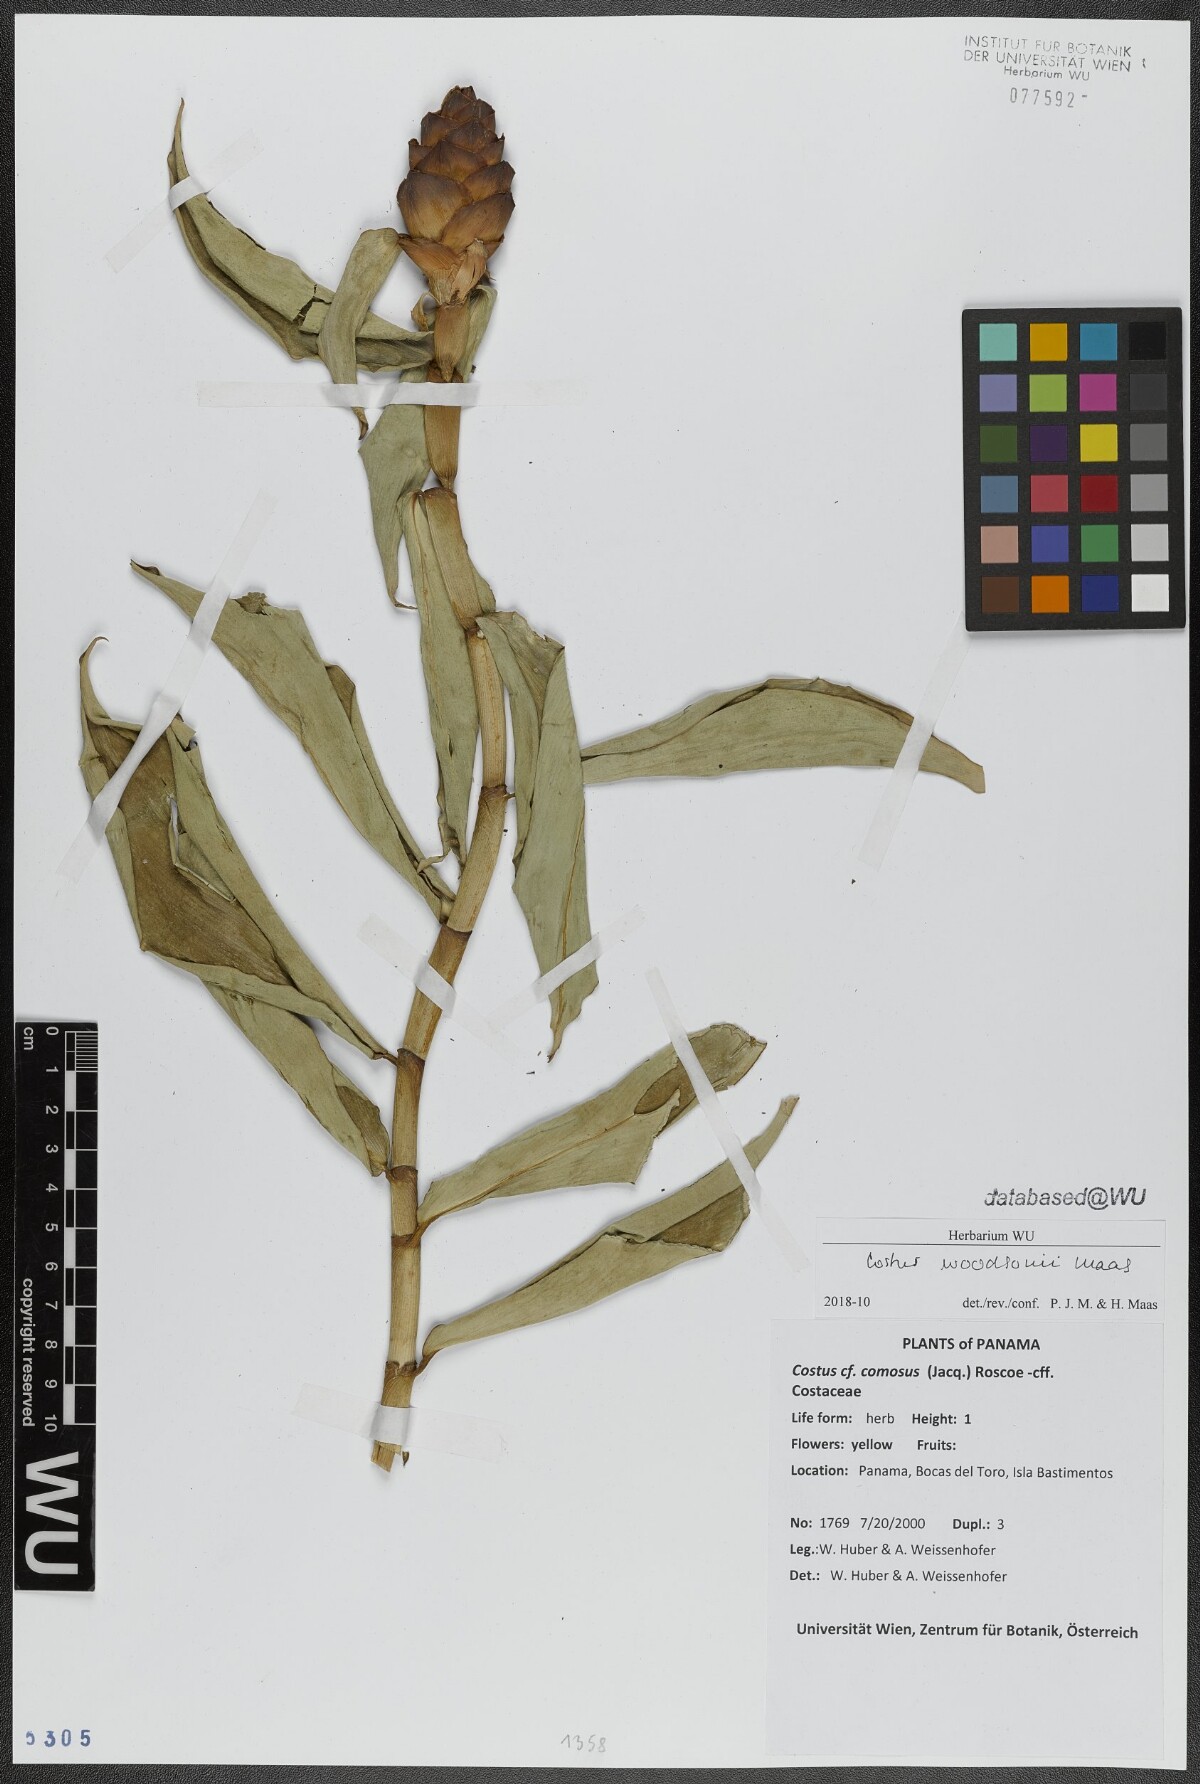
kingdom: Plantae
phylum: Tracheophyta
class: Liliopsida
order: Zingiberales
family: Costaceae
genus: Costus
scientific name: Costus woodsonii
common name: Scarlet spiral-ginger
